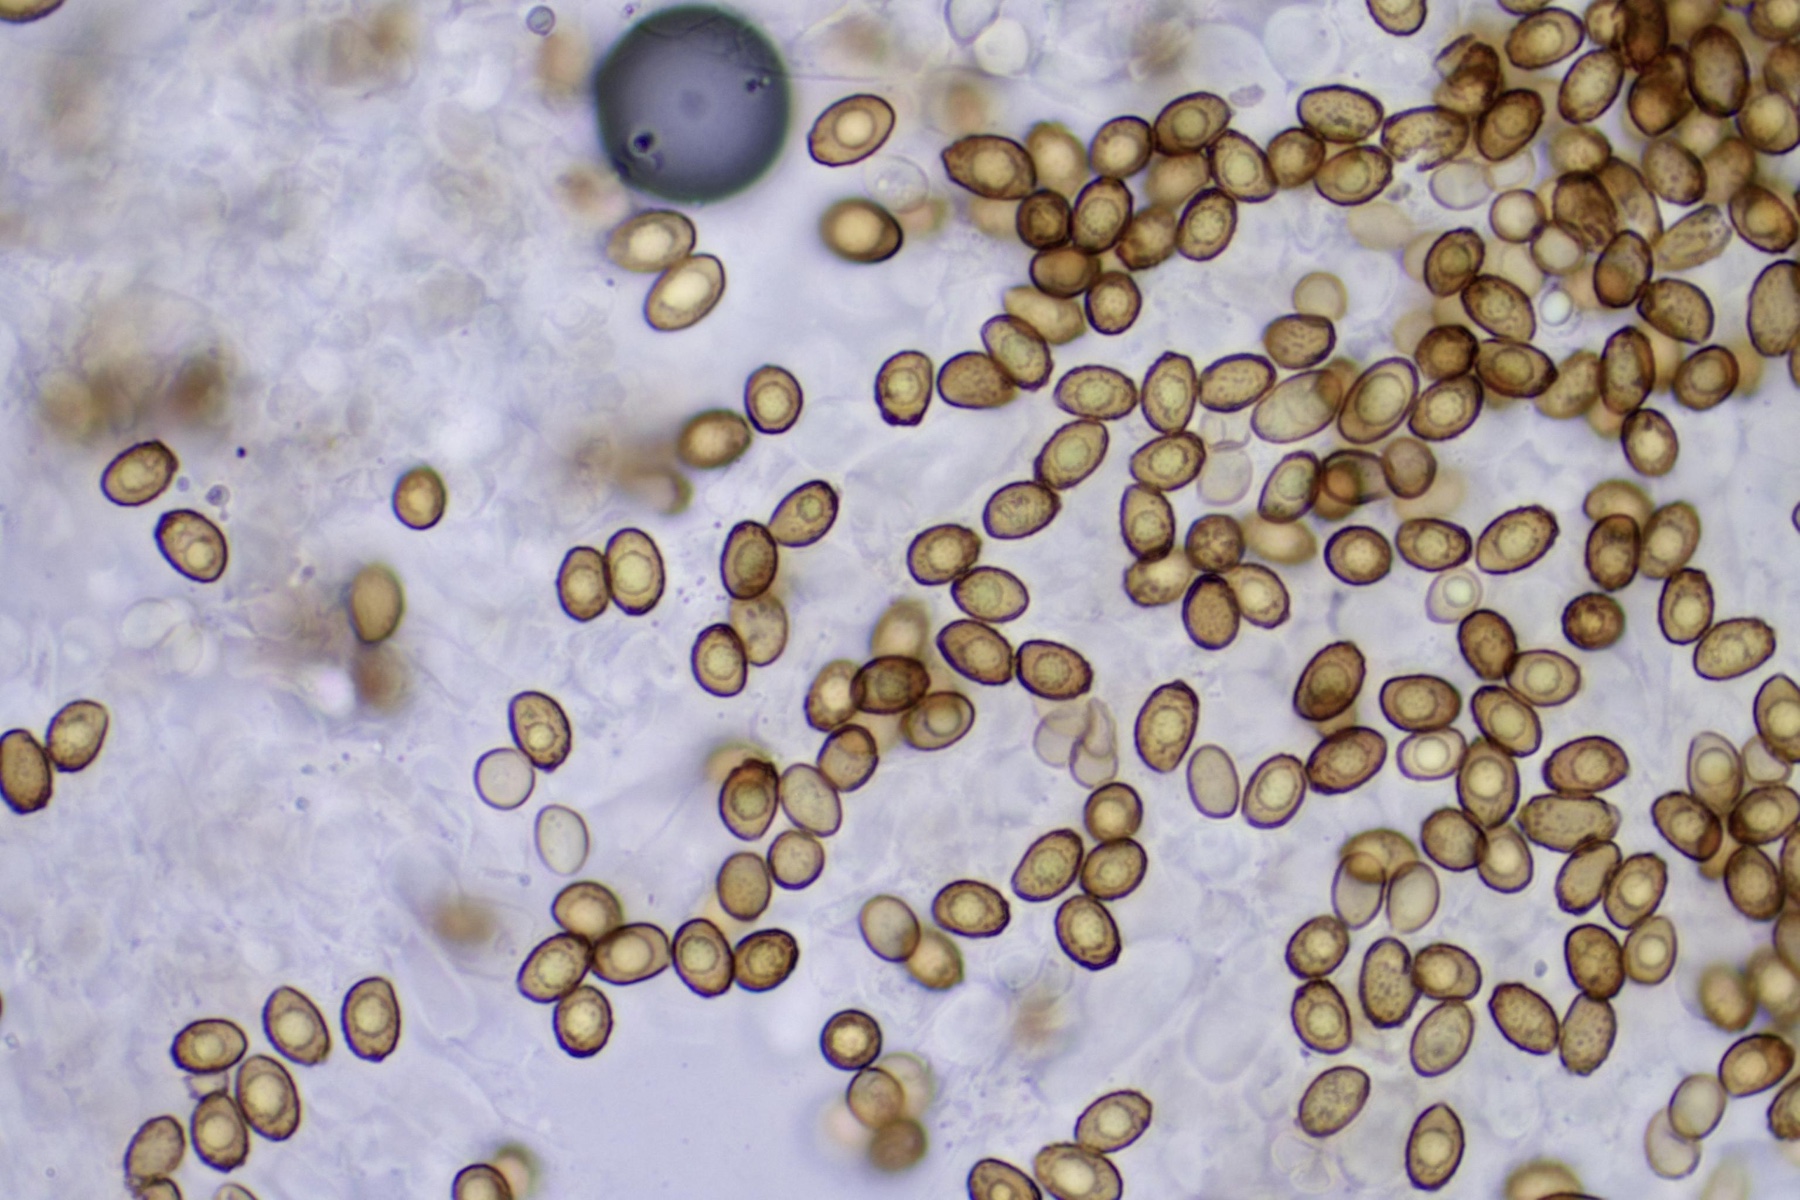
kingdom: Fungi
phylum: Basidiomycota
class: Agaricomycetes
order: Agaricales
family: Cortinariaceae
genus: Cortinarius
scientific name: Cortinarius semisanguineus
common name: Surprise webcap
